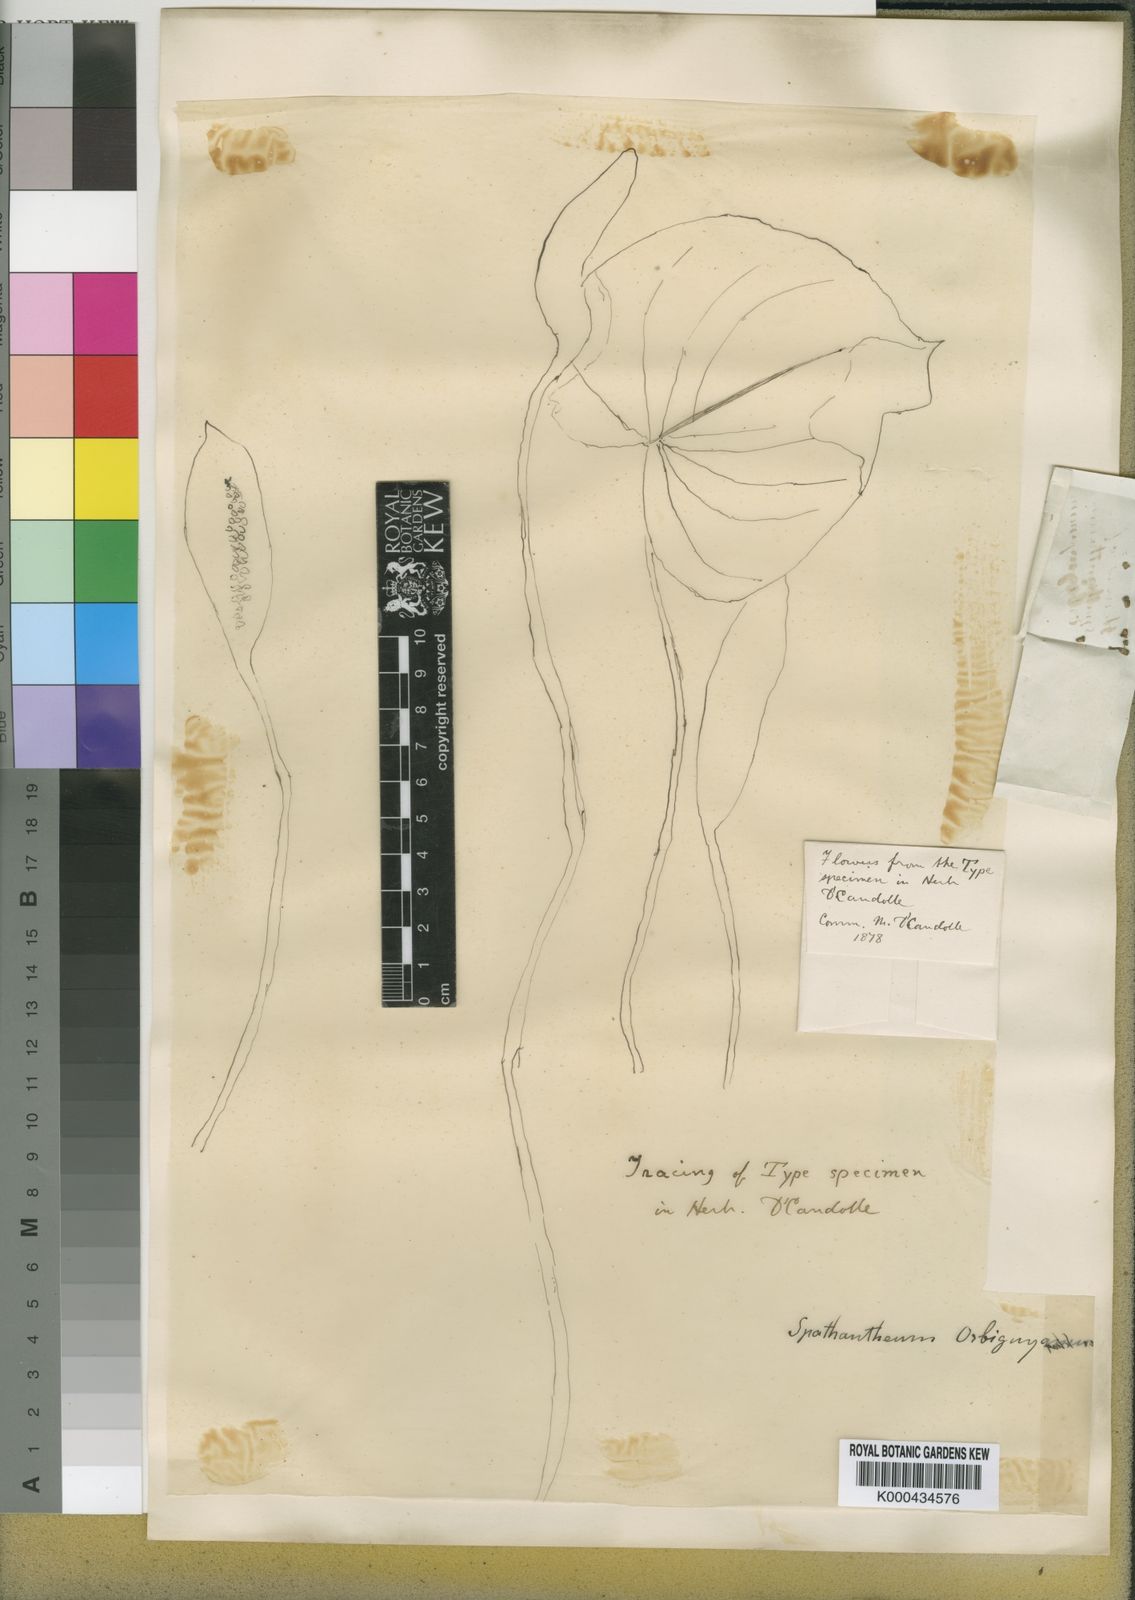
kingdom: Plantae
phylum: Tracheophyta
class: Liliopsida
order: Alismatales
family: Araceae
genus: Spathantheum
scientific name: Spathantheum orbignyanum
